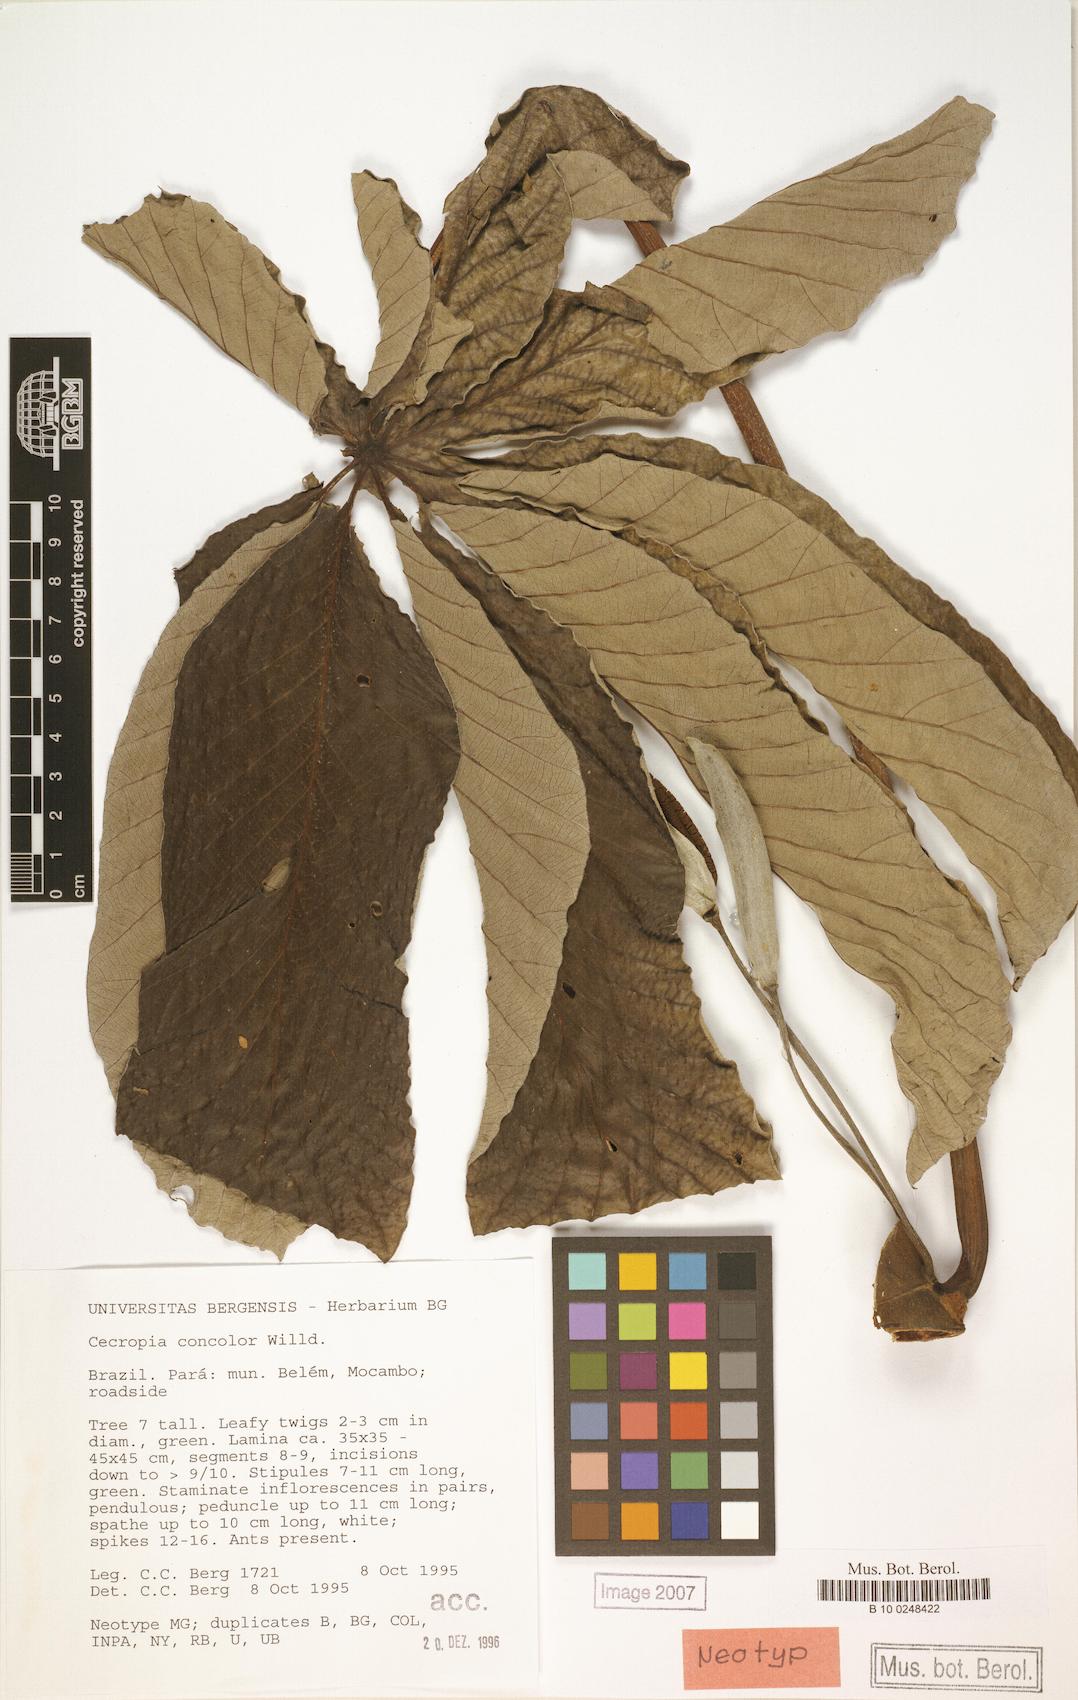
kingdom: Plantae
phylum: Tracheophyta
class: Magnoliopsida
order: Rosales
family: Urticaceae
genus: Cecropia
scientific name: Cecropia concolor
